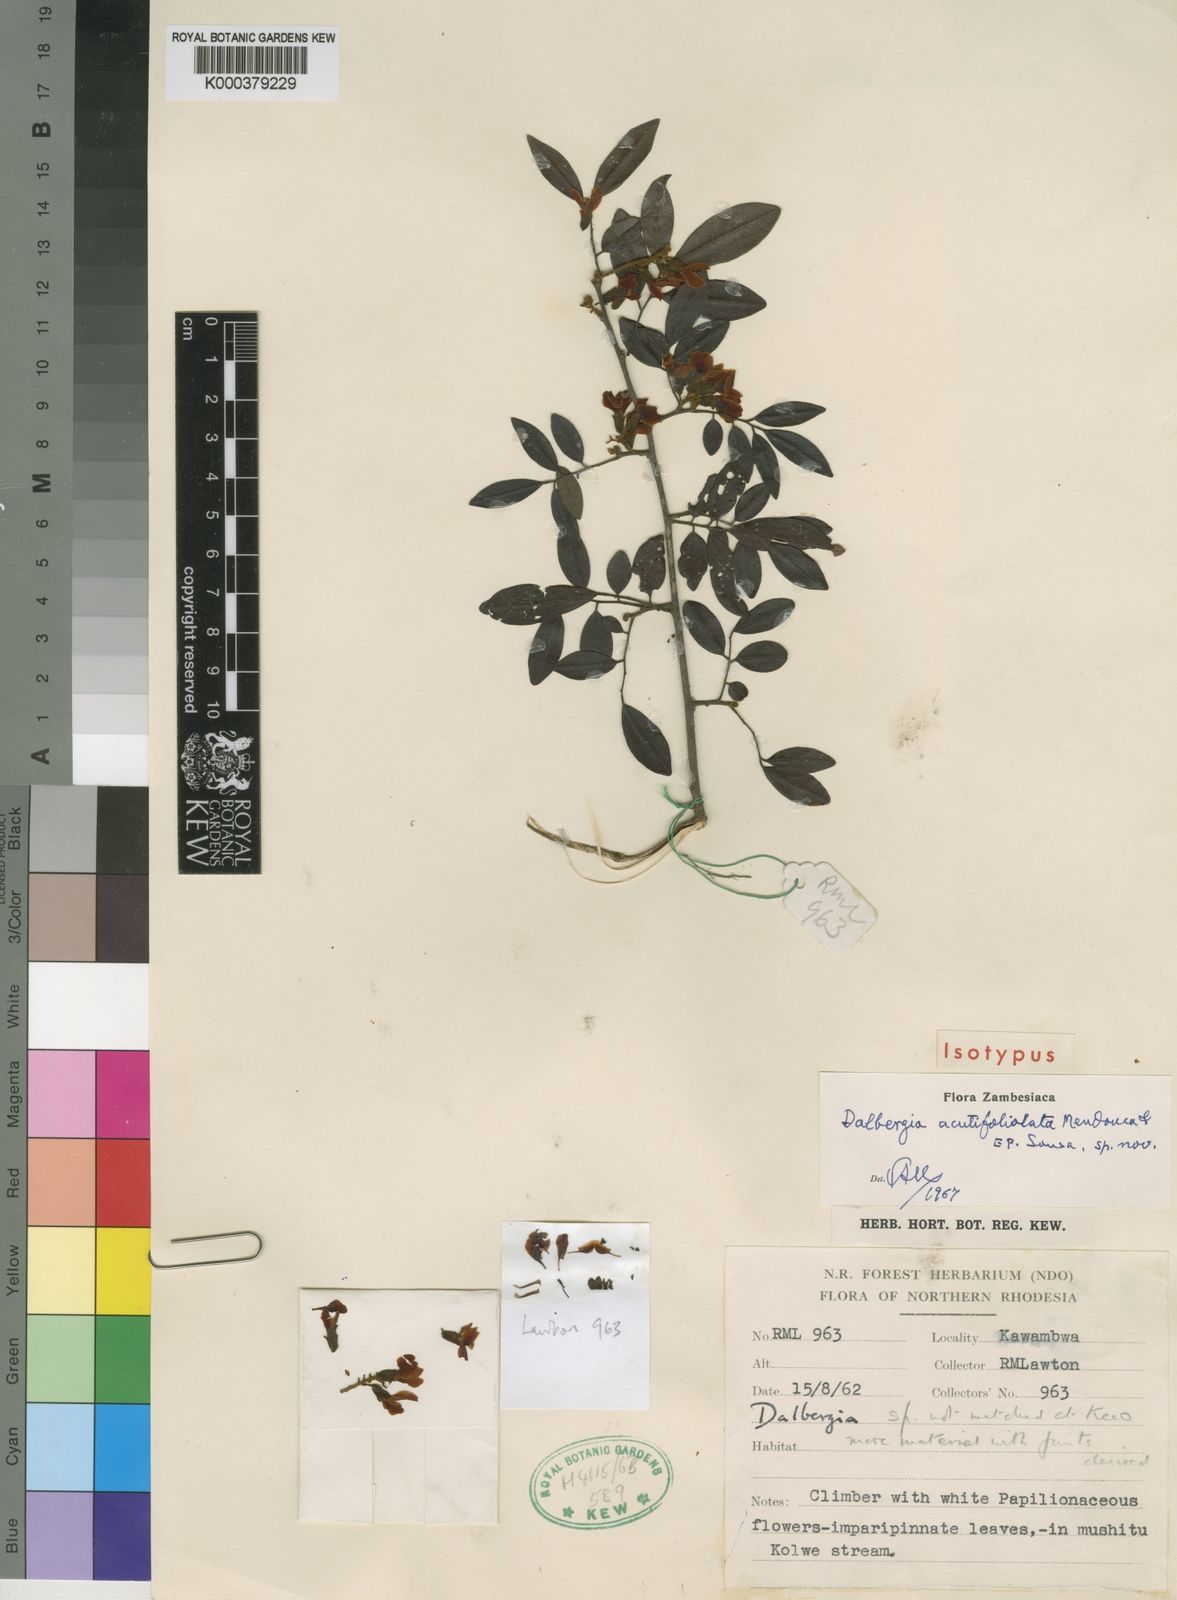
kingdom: Plantae
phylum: Tracheophyta
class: Magnoliopsida
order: Fabales
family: Fabaceae
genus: Dalbergia
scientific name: Dalbergia
